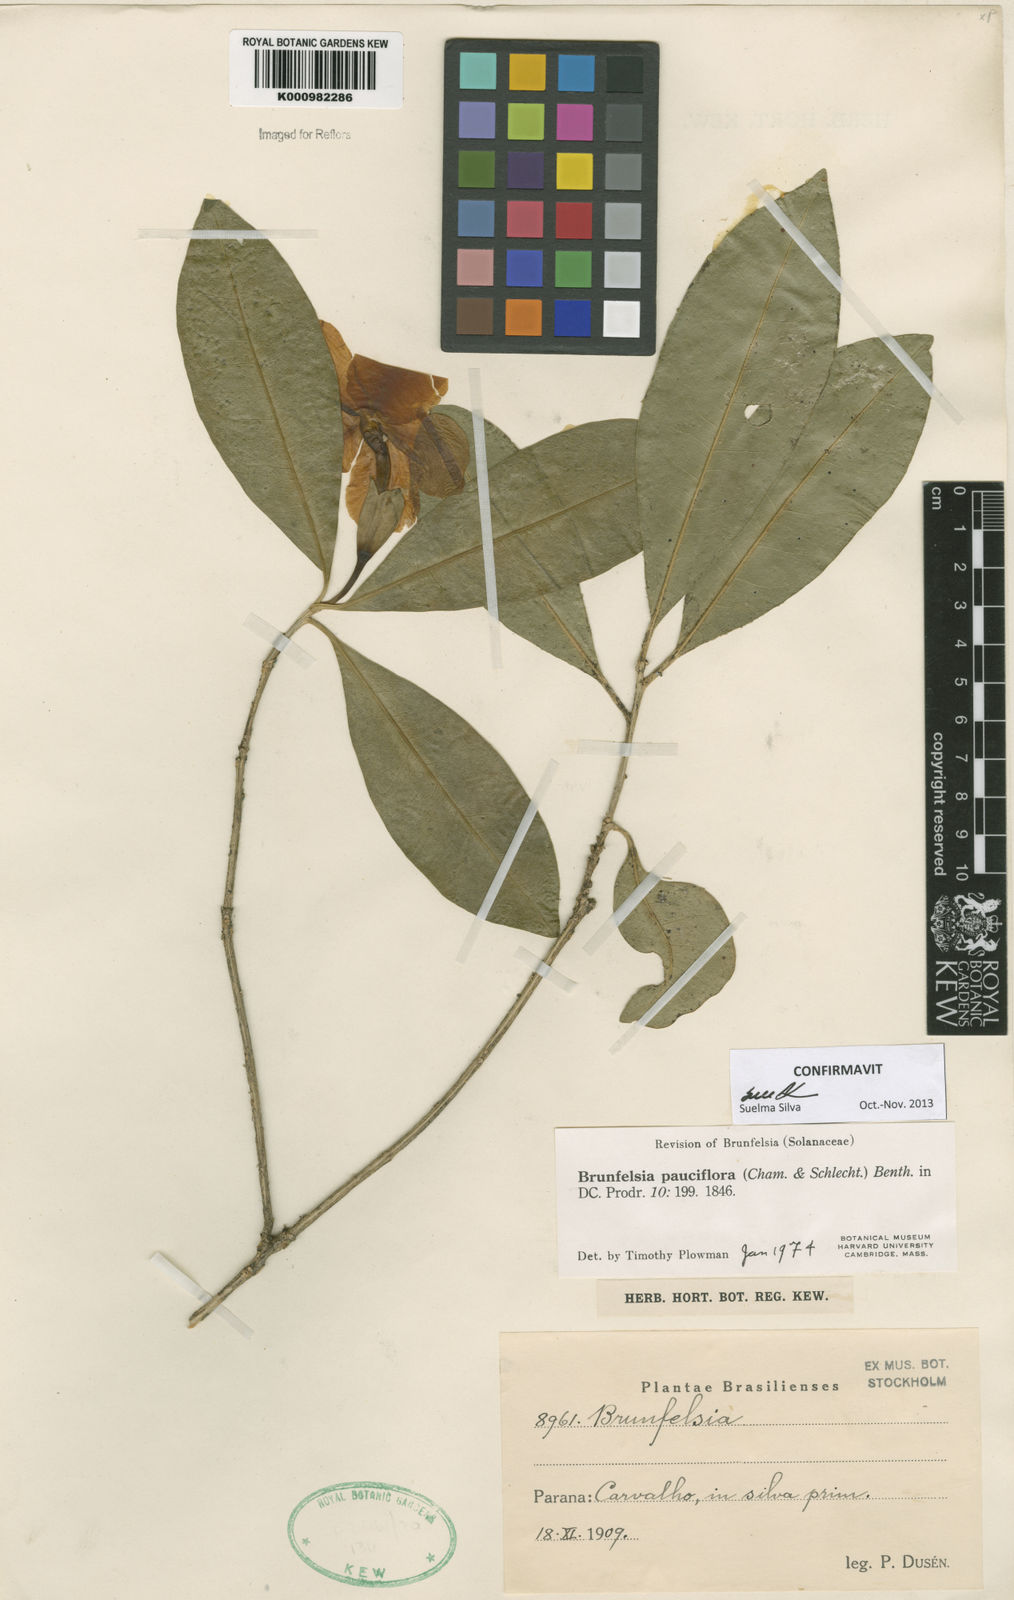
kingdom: Plantae
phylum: Tracheophyta
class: Magnoliopsida
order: Solanales
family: Solanaceae
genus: Brunfelsia
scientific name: Brunfelsia pauciflora
